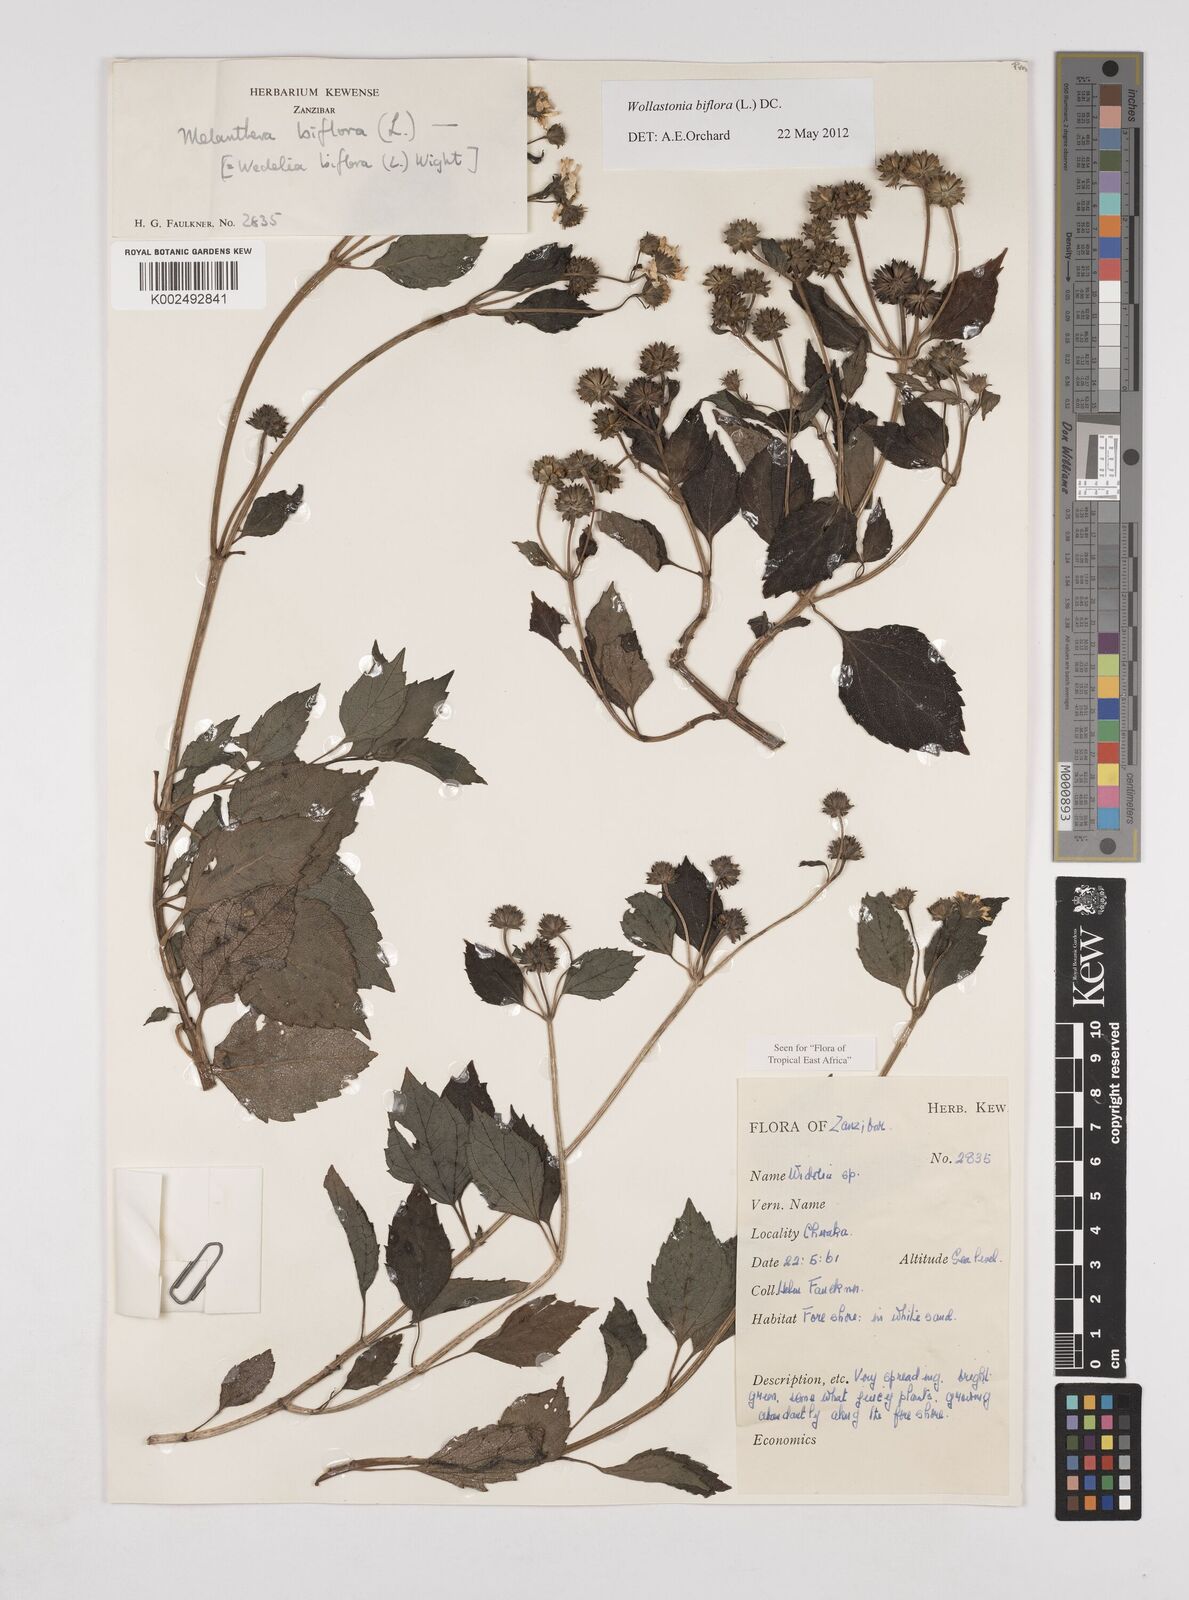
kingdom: Plantae
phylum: Tracheophyta
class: Magnoliopsida
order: Asterales
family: Asteraceae
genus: Wollastonia
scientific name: Wollastonia biflora
